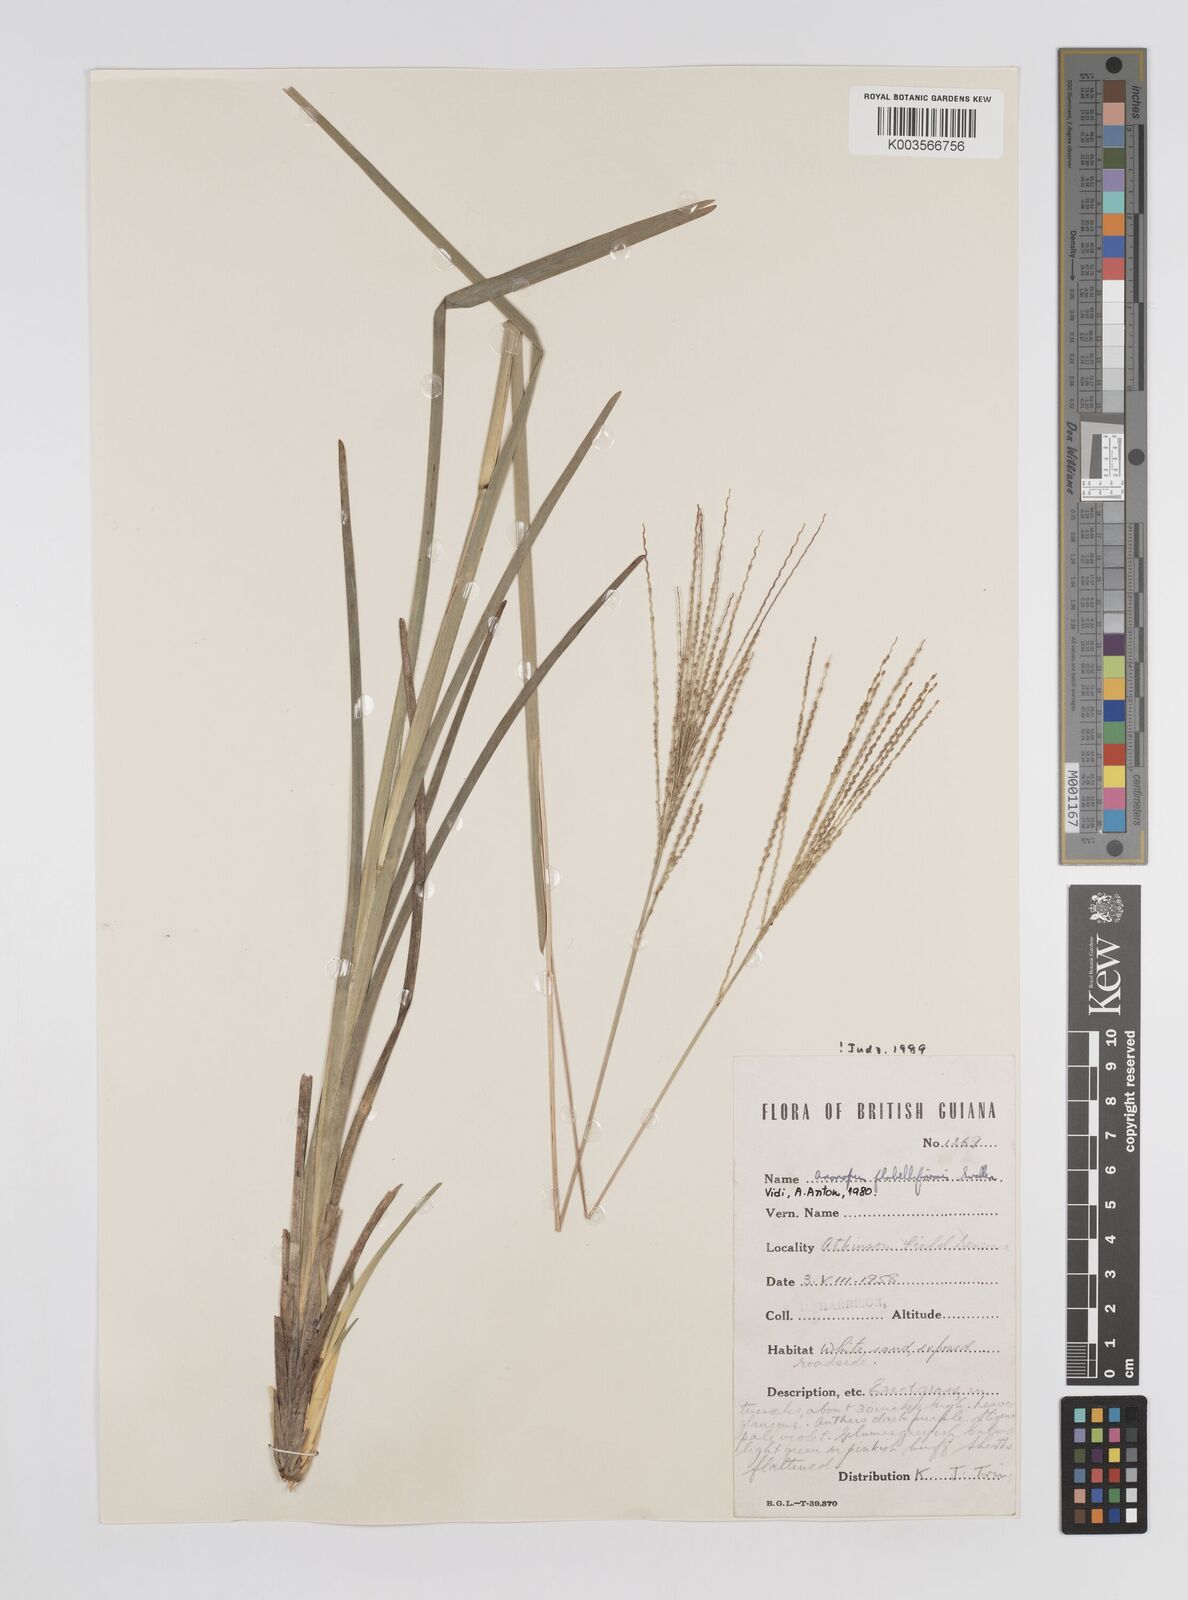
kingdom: Plantae
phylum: Tracheophyta
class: Liliopsida
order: Poales
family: Poaceae
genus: Axonopus
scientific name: Axonopus flabelliformis
